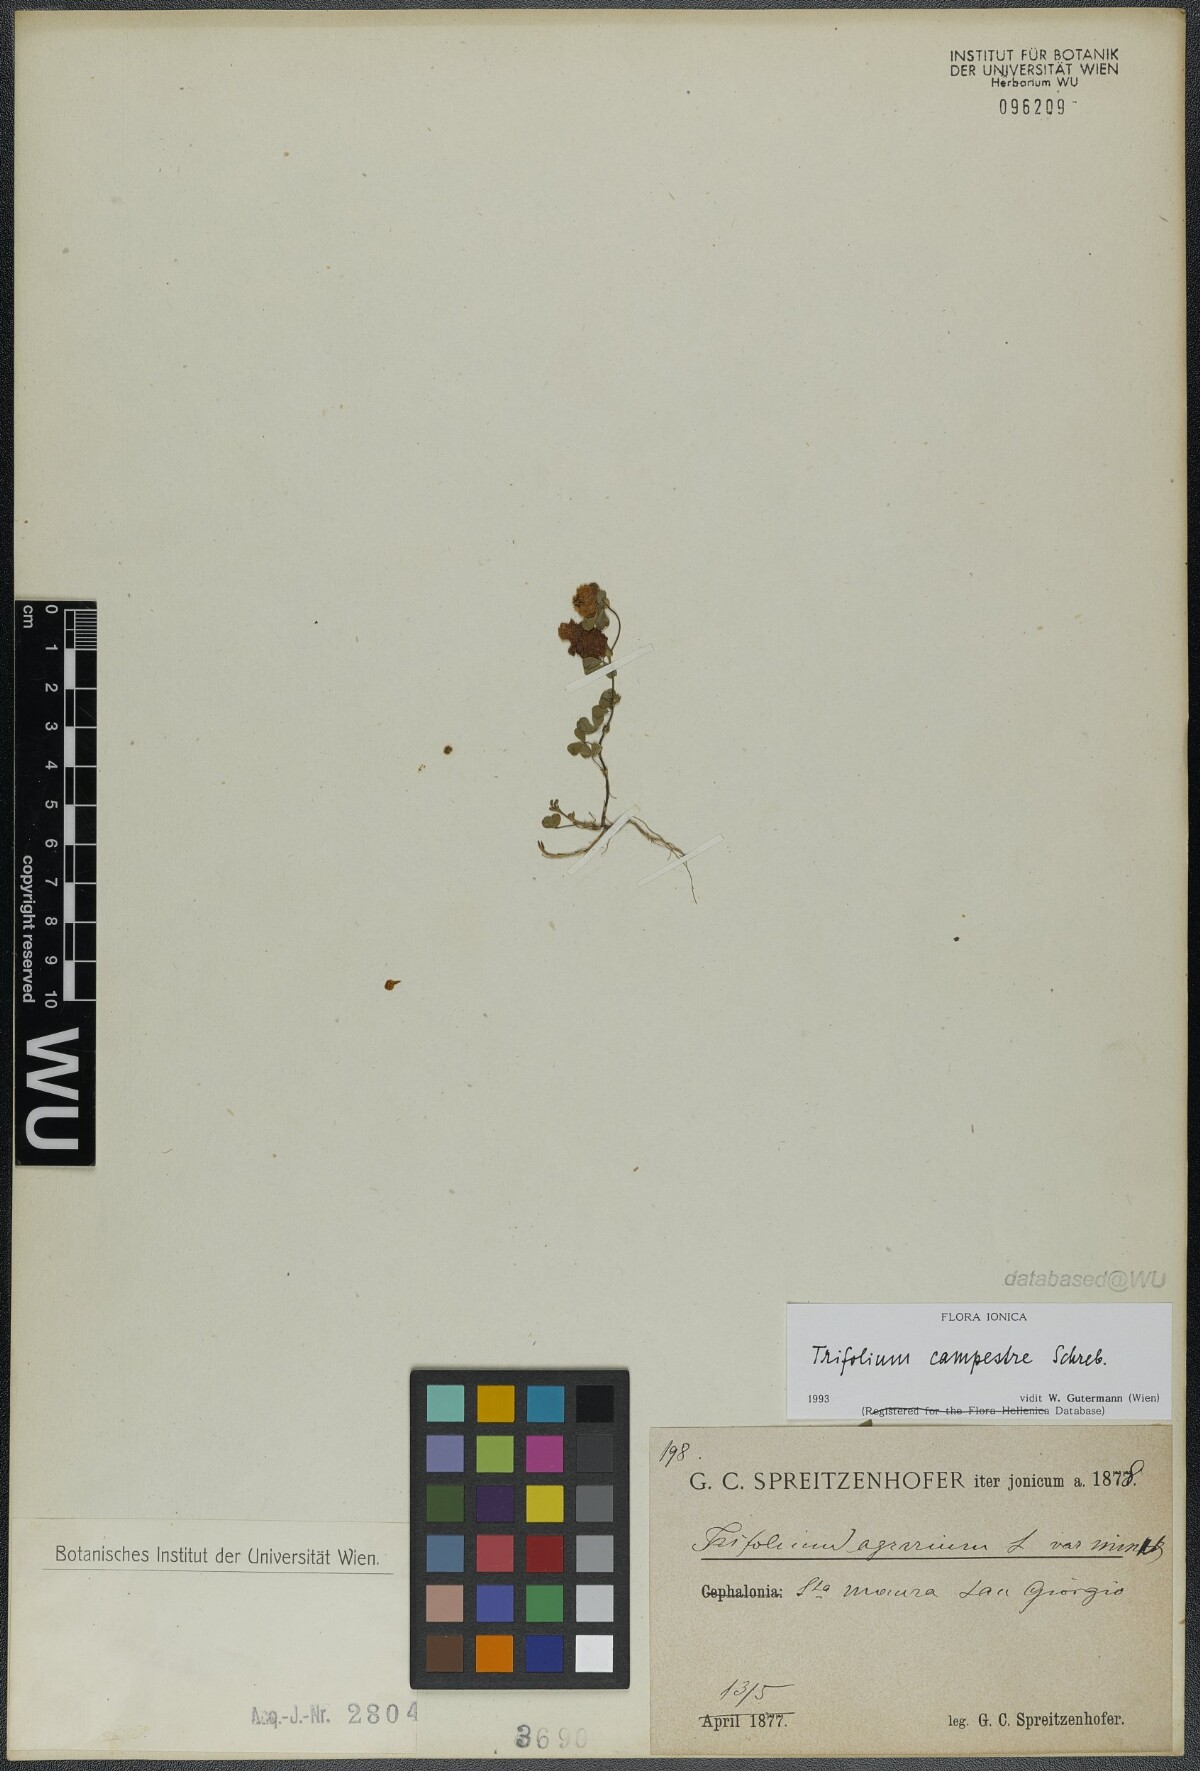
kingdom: Plantae
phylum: Tracheophyta
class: Magnoliopsida
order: Fabales
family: Fabaceae
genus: Trifolium
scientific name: Trifolium campestre
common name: Field clover
